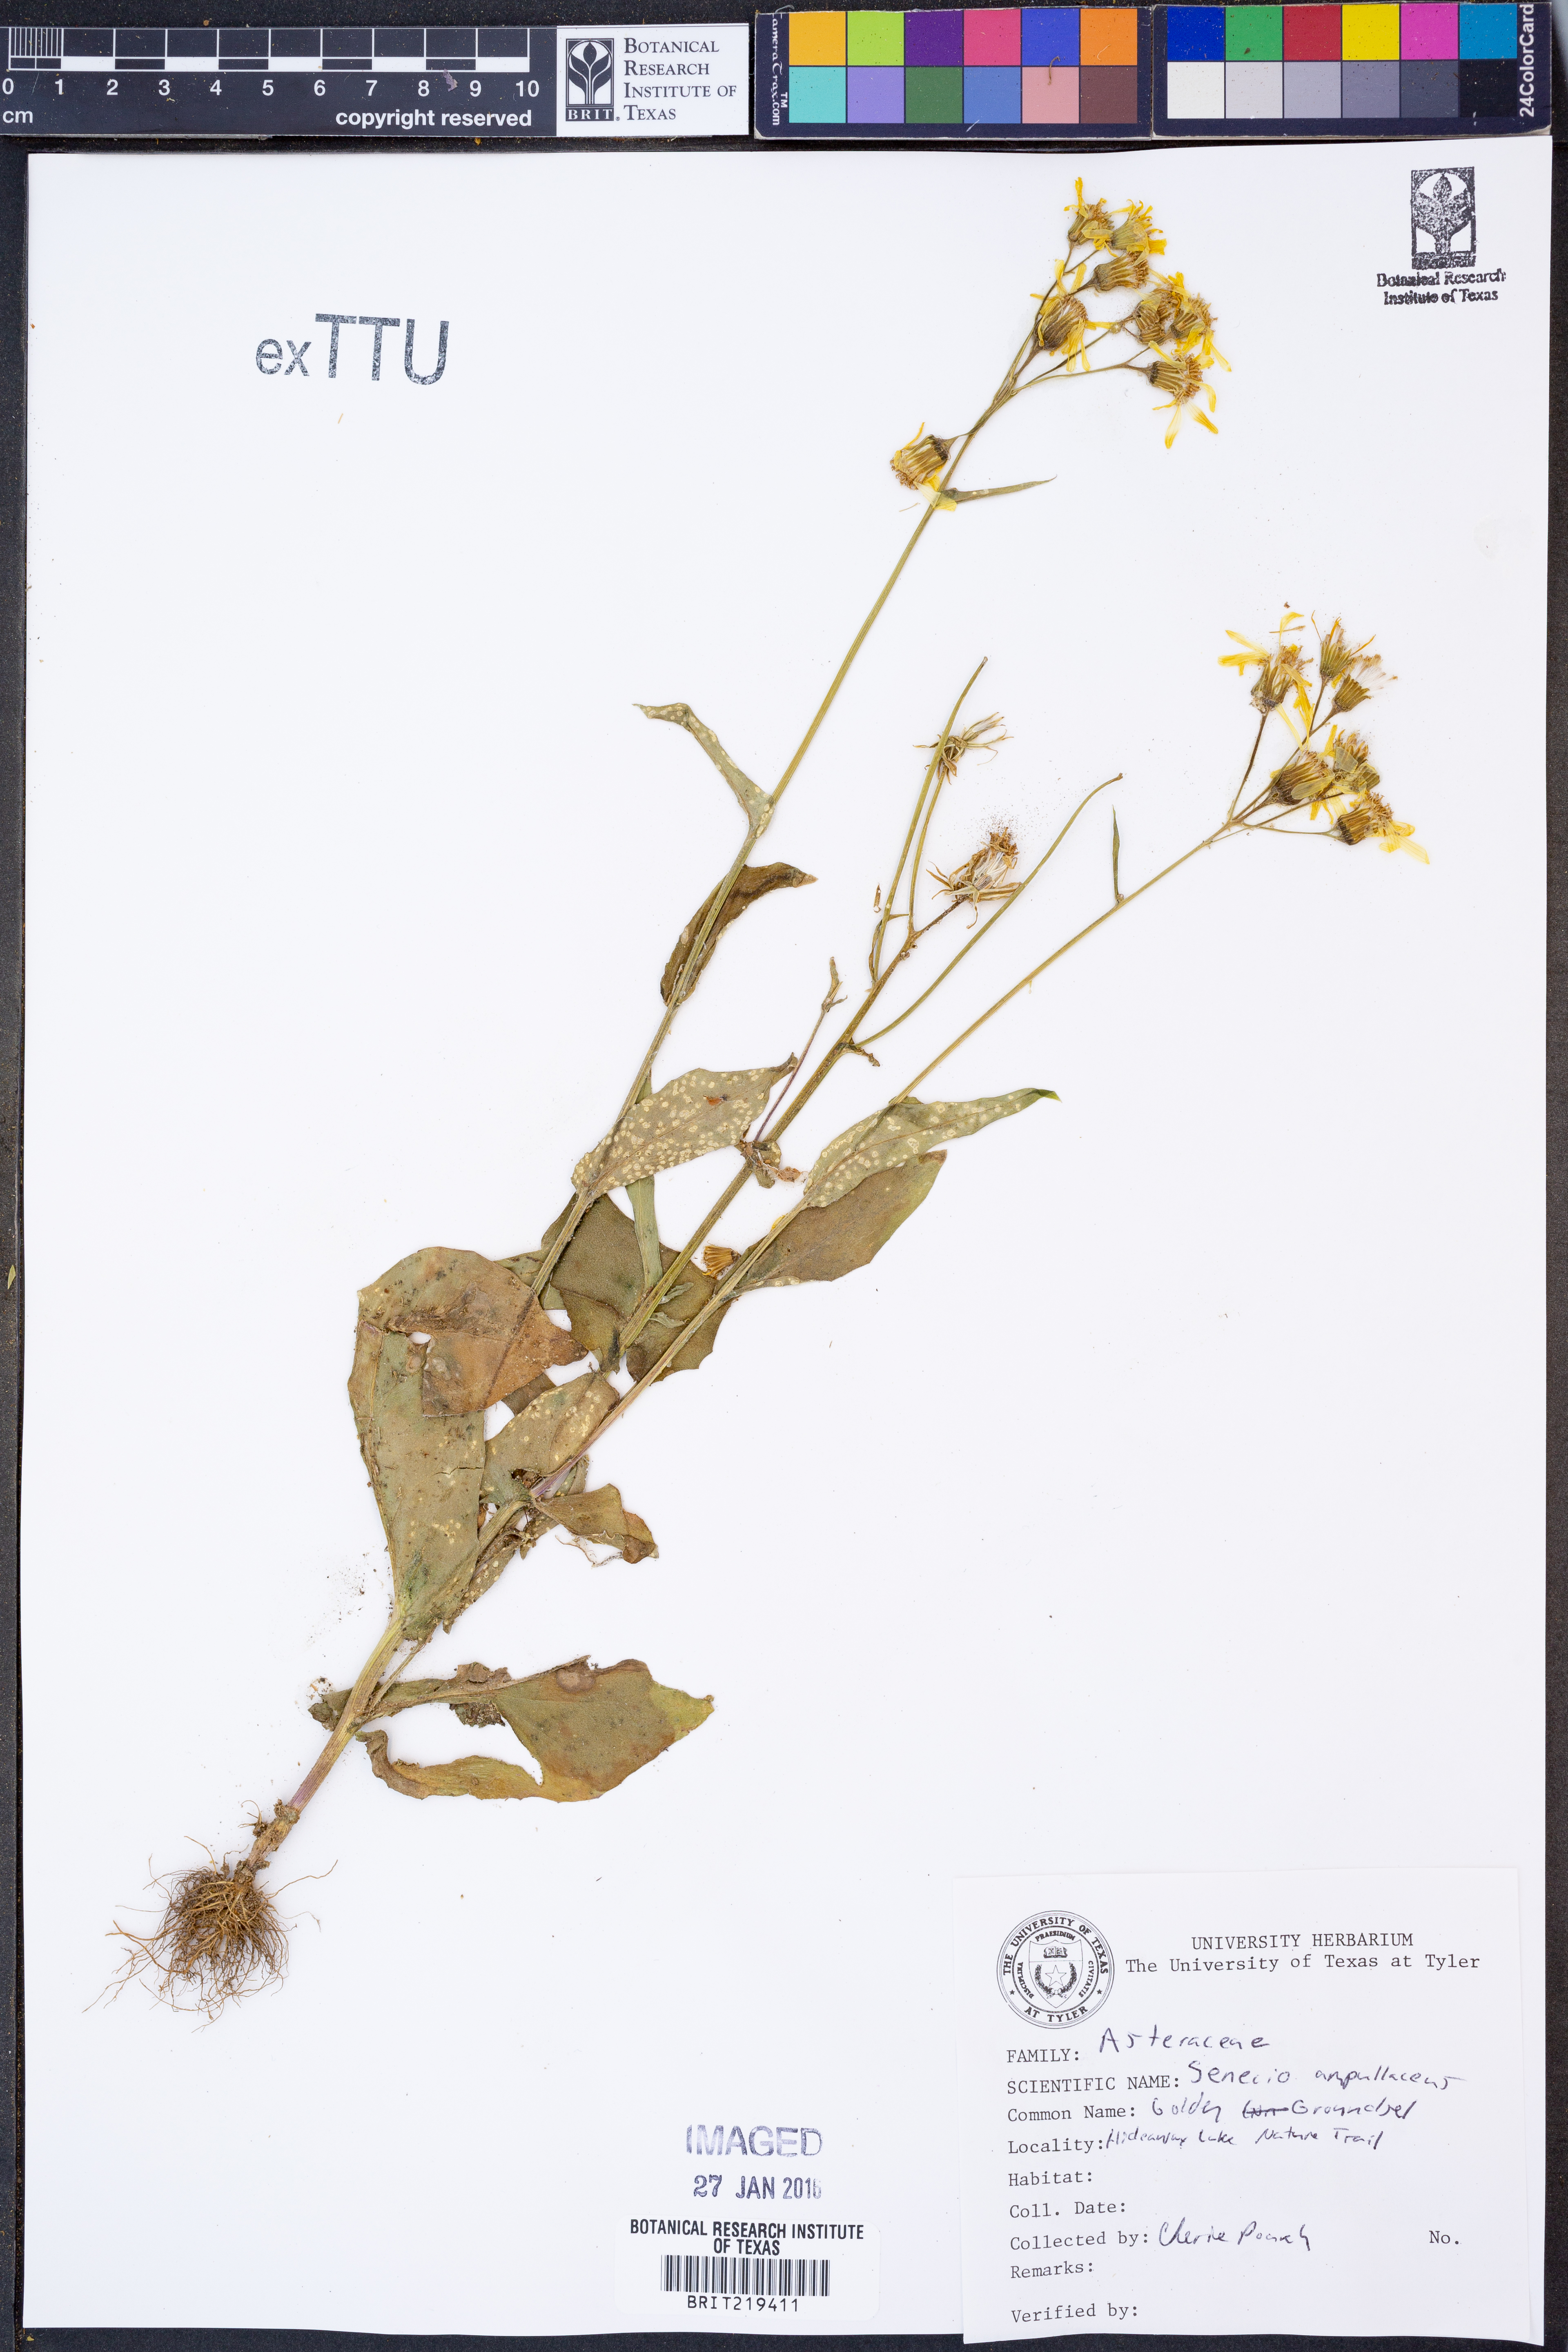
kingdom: Plantae
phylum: Tracheophyta
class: Magnoliopsida
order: Asterales
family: Asteraceae
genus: Senecio
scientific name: Senecio ampullaceus
